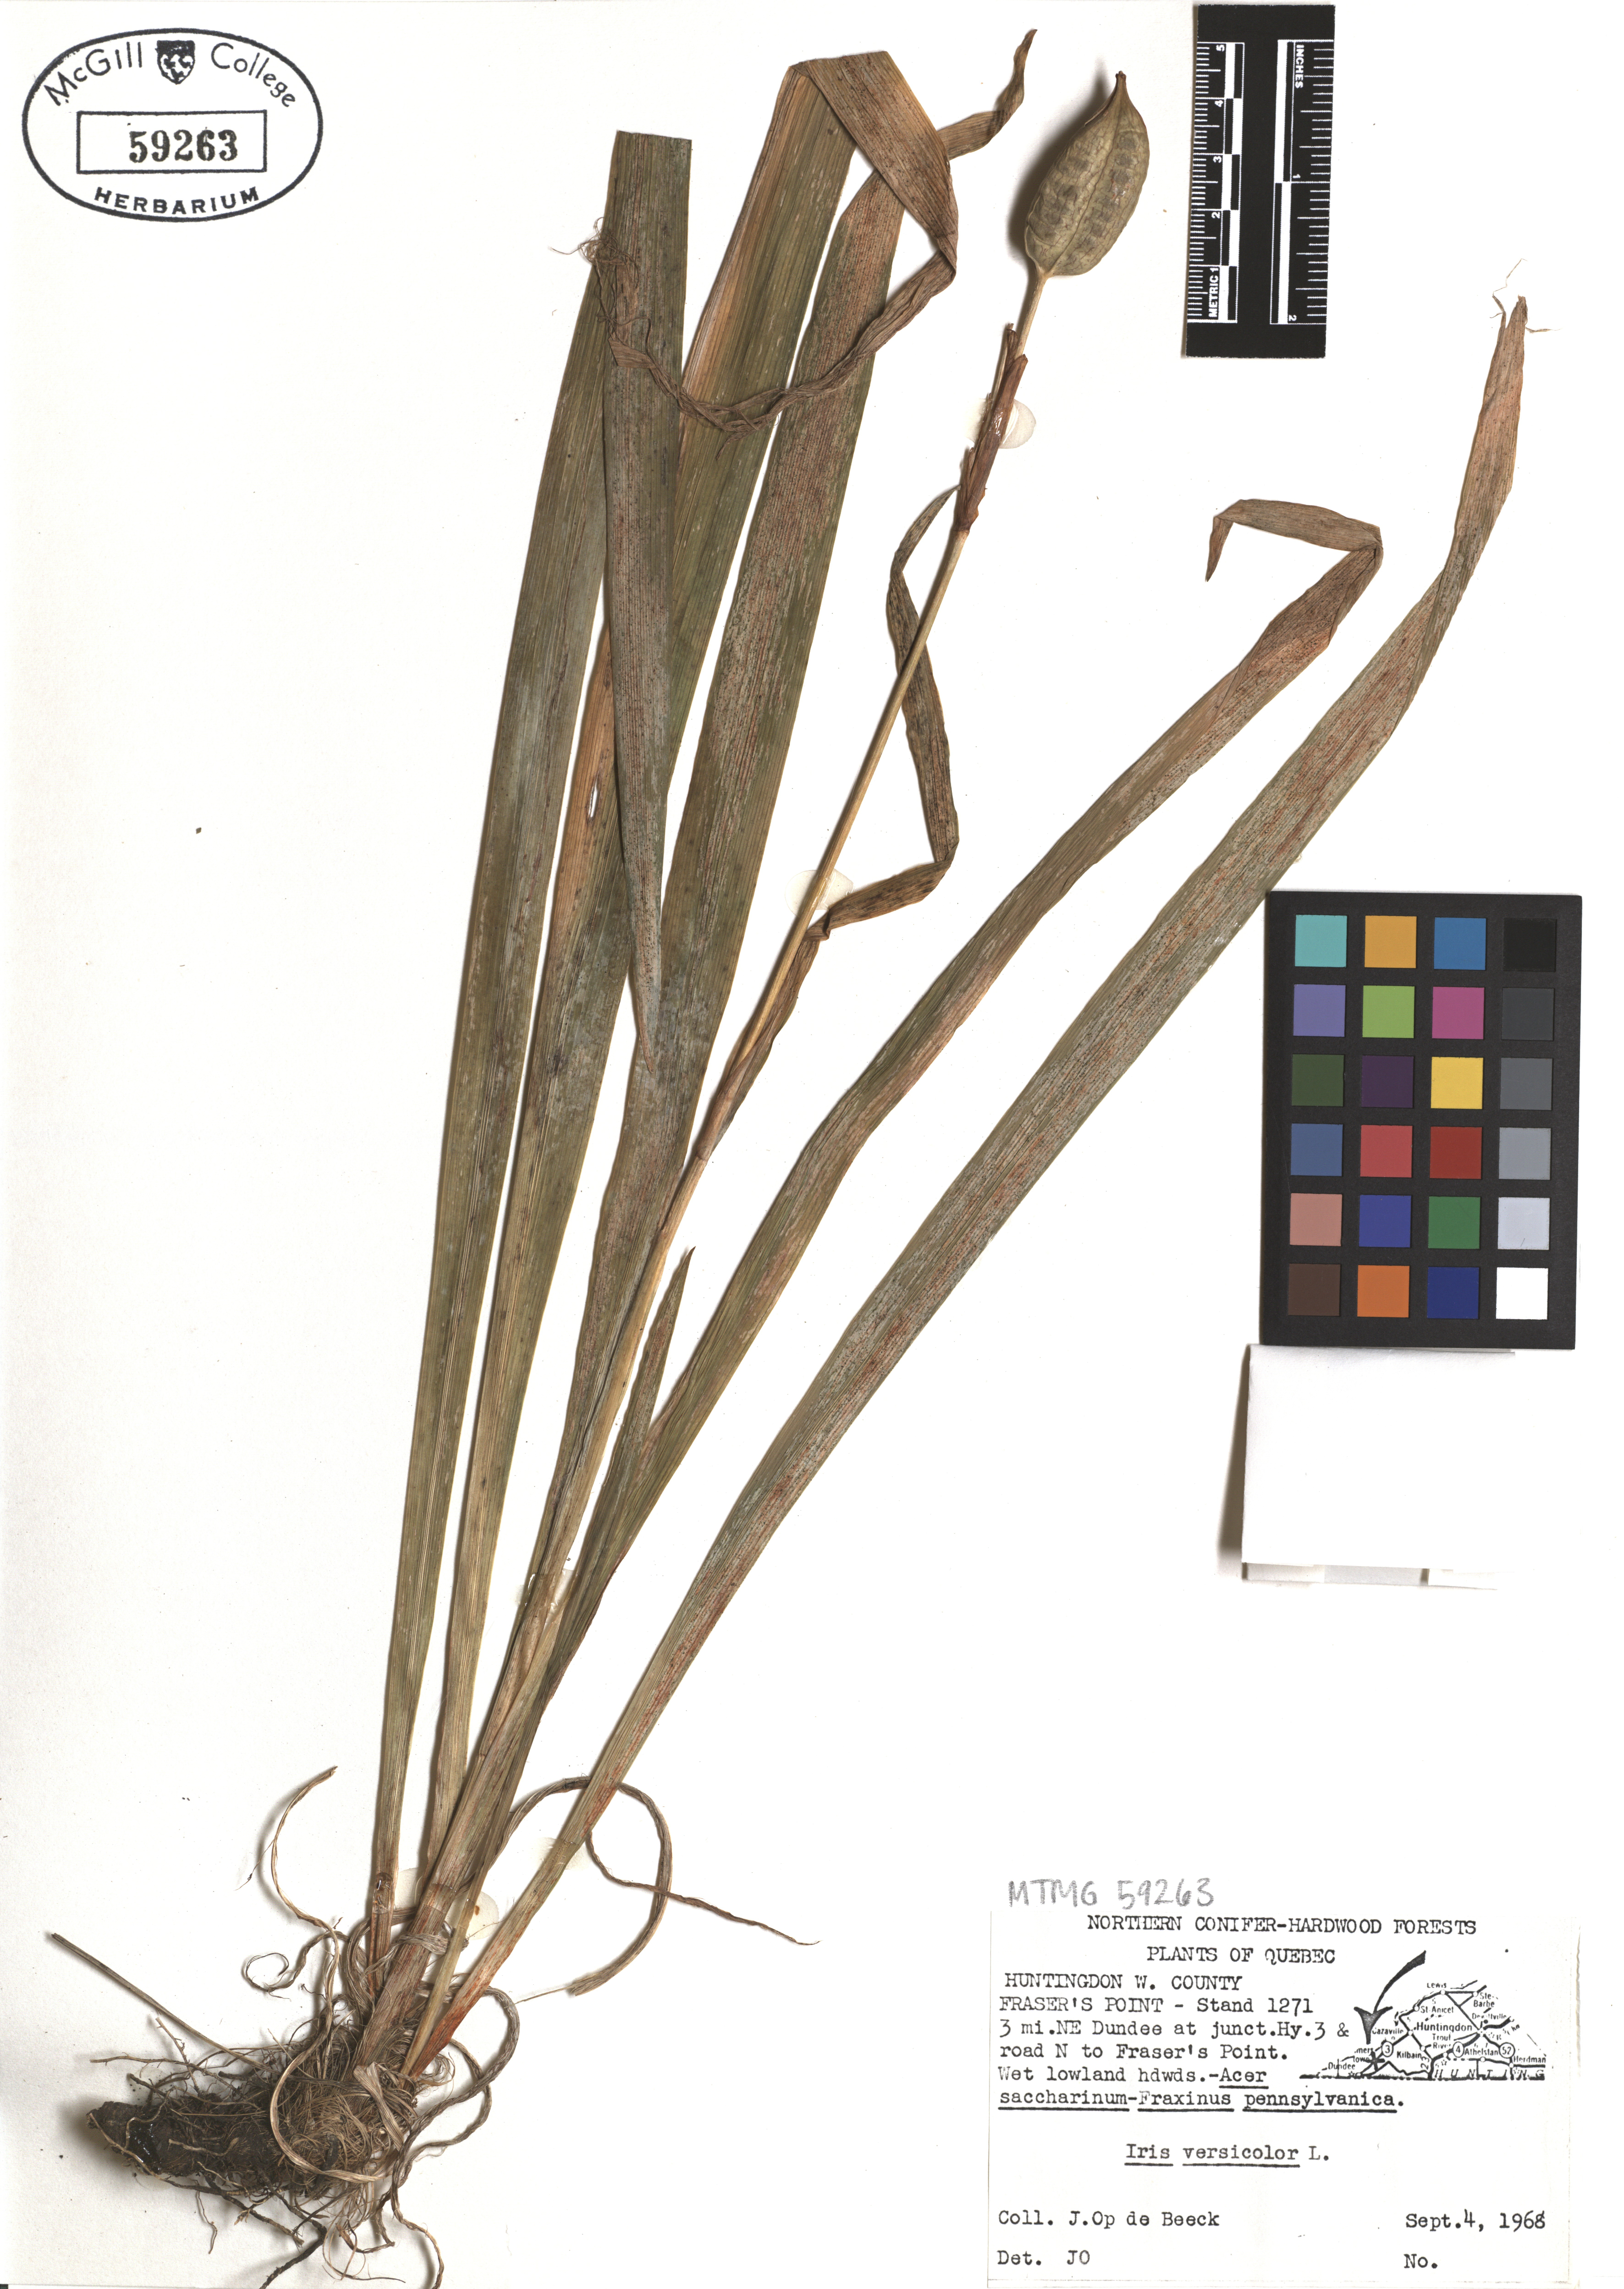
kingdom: Plantae
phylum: Tracheophyta
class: Liliopsida
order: Asparagales
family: Iridaceae
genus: Iris
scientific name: Iris versicolor
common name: Purple iris
